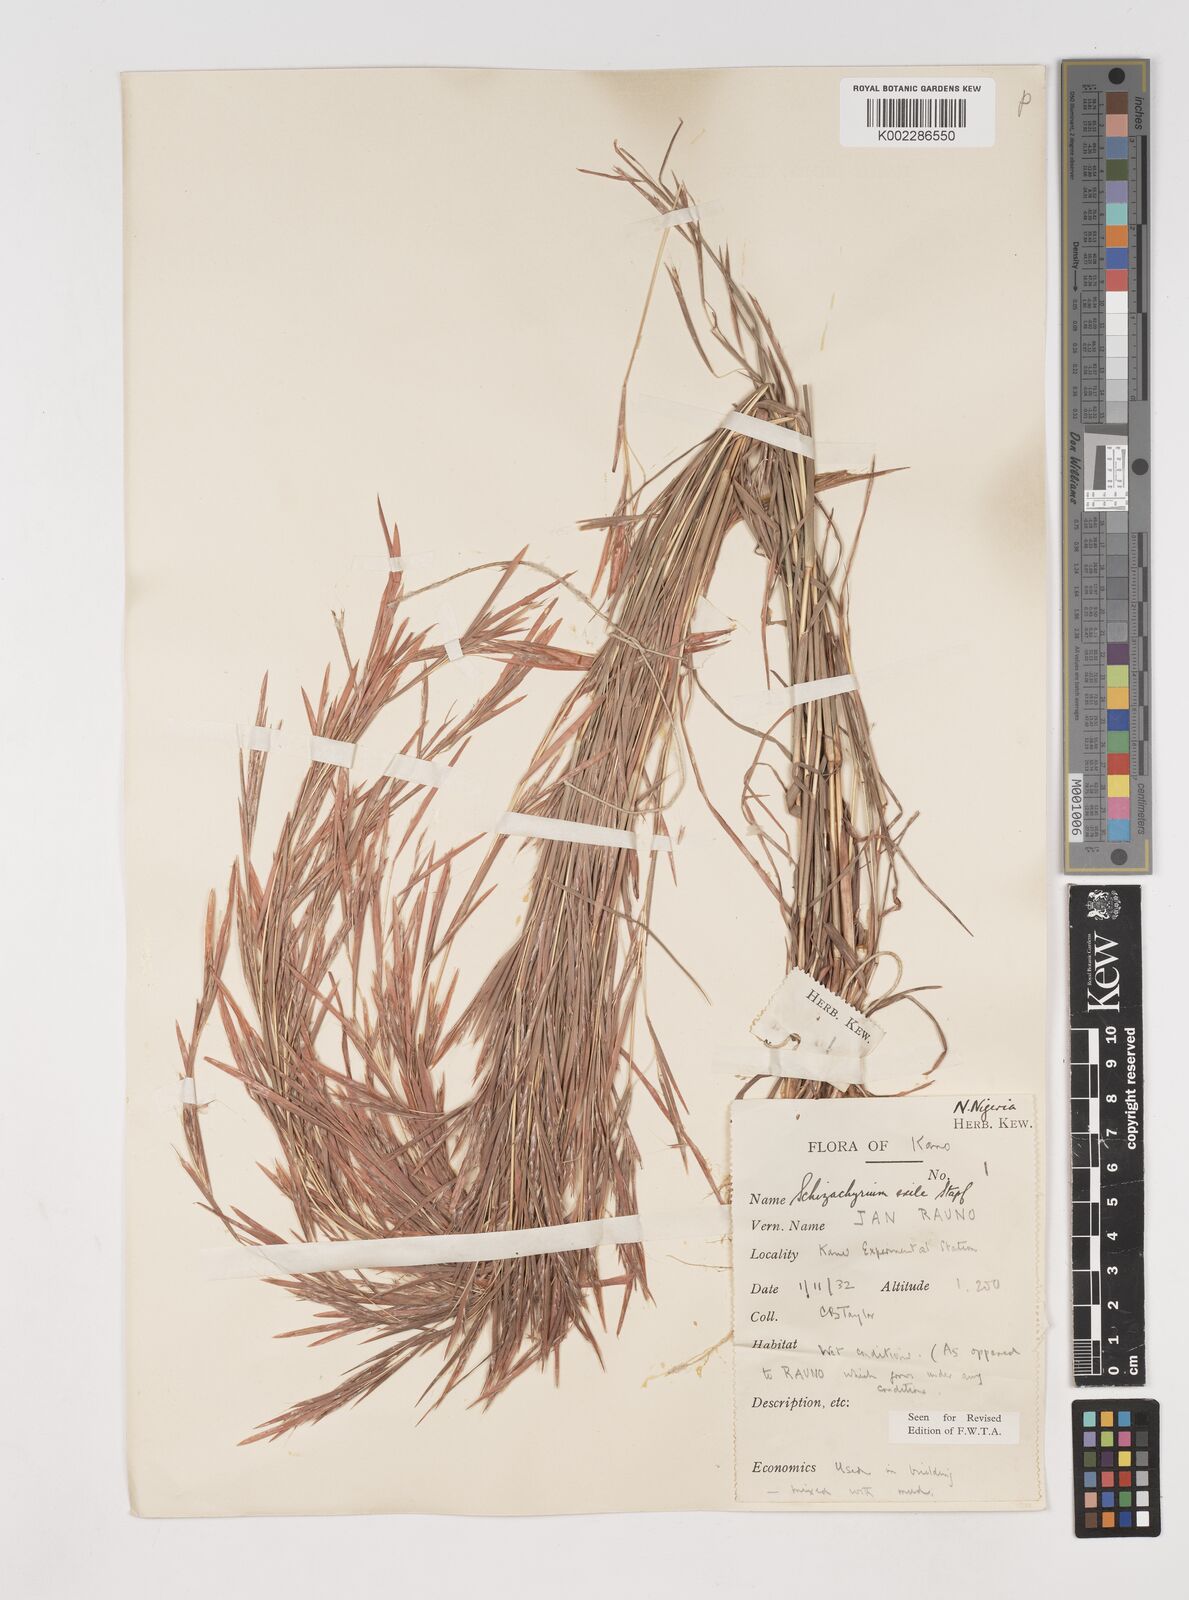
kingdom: Plantae
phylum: Tracheophyta
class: Liliopsida
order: Poales
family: Poaceae
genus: Schizachyrium
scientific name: Schizachyrium exile
